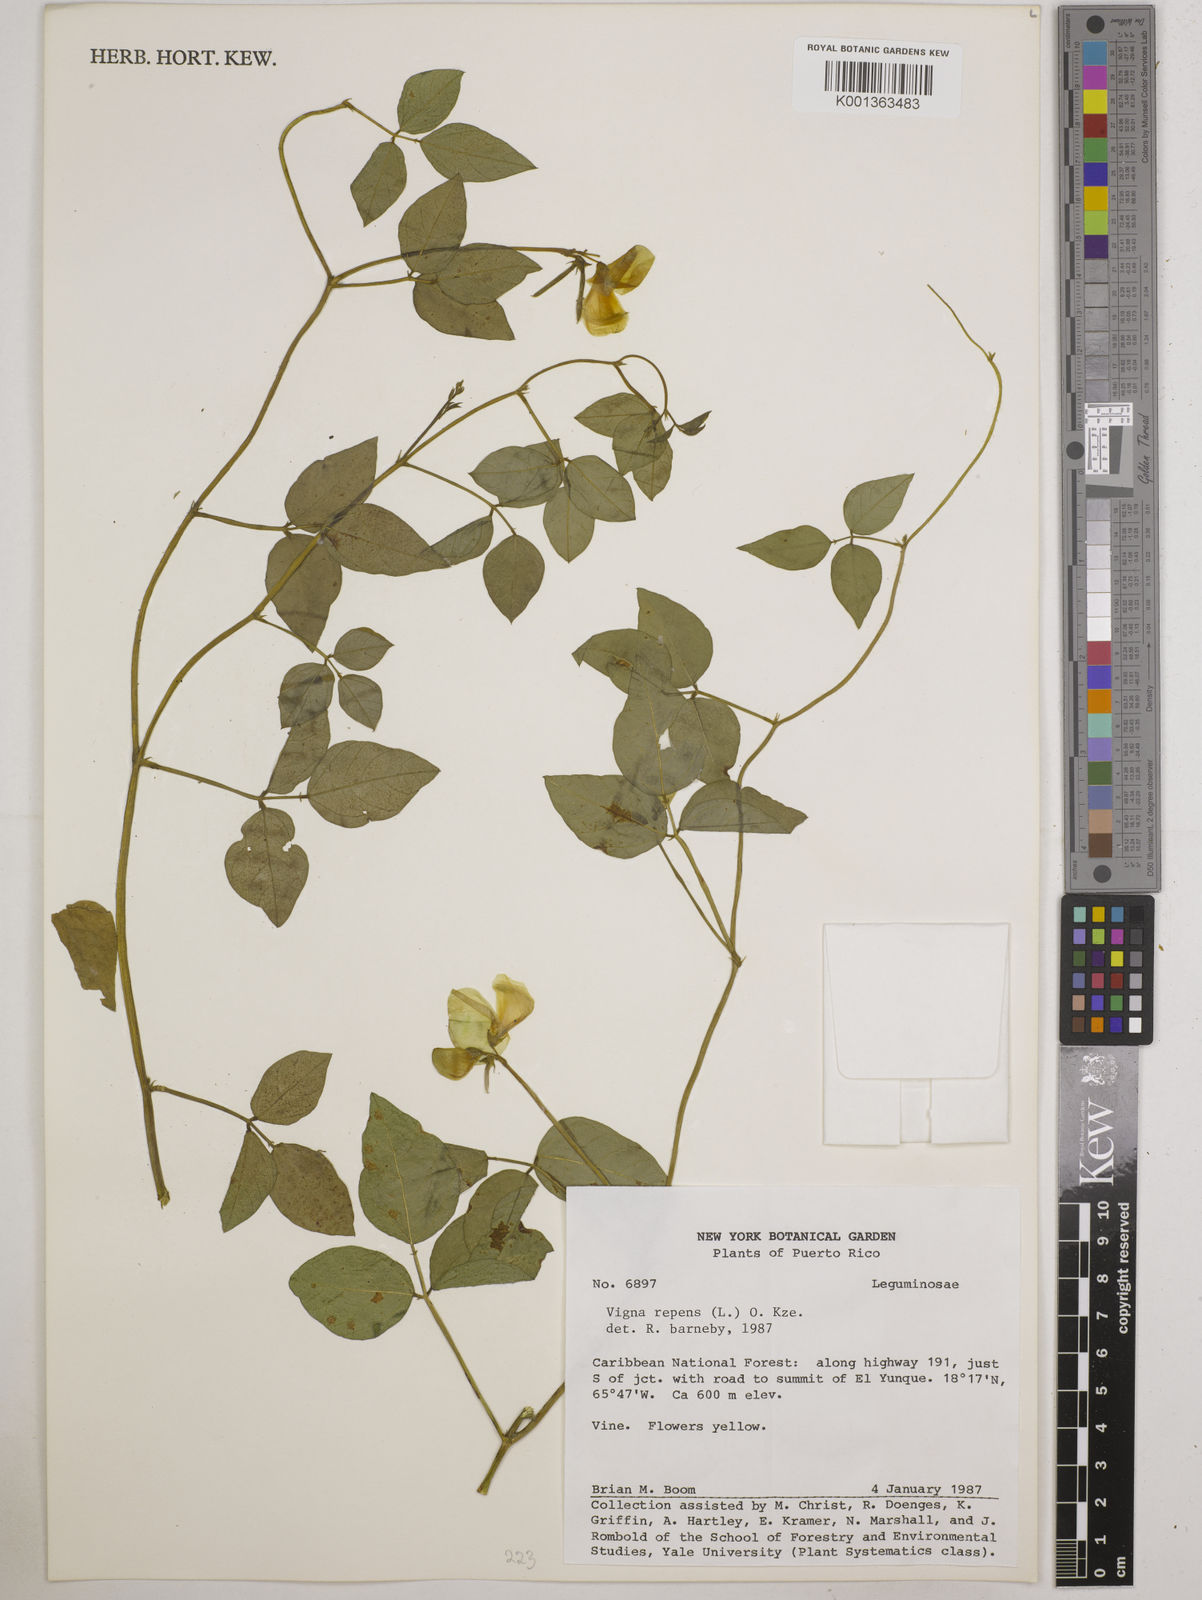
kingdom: Plantae
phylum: Tracheophyta
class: Magnoliopsida
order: Fabales
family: Fabaceae
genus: Vigna
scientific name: Vigna luteola
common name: Hairypod cowpea
